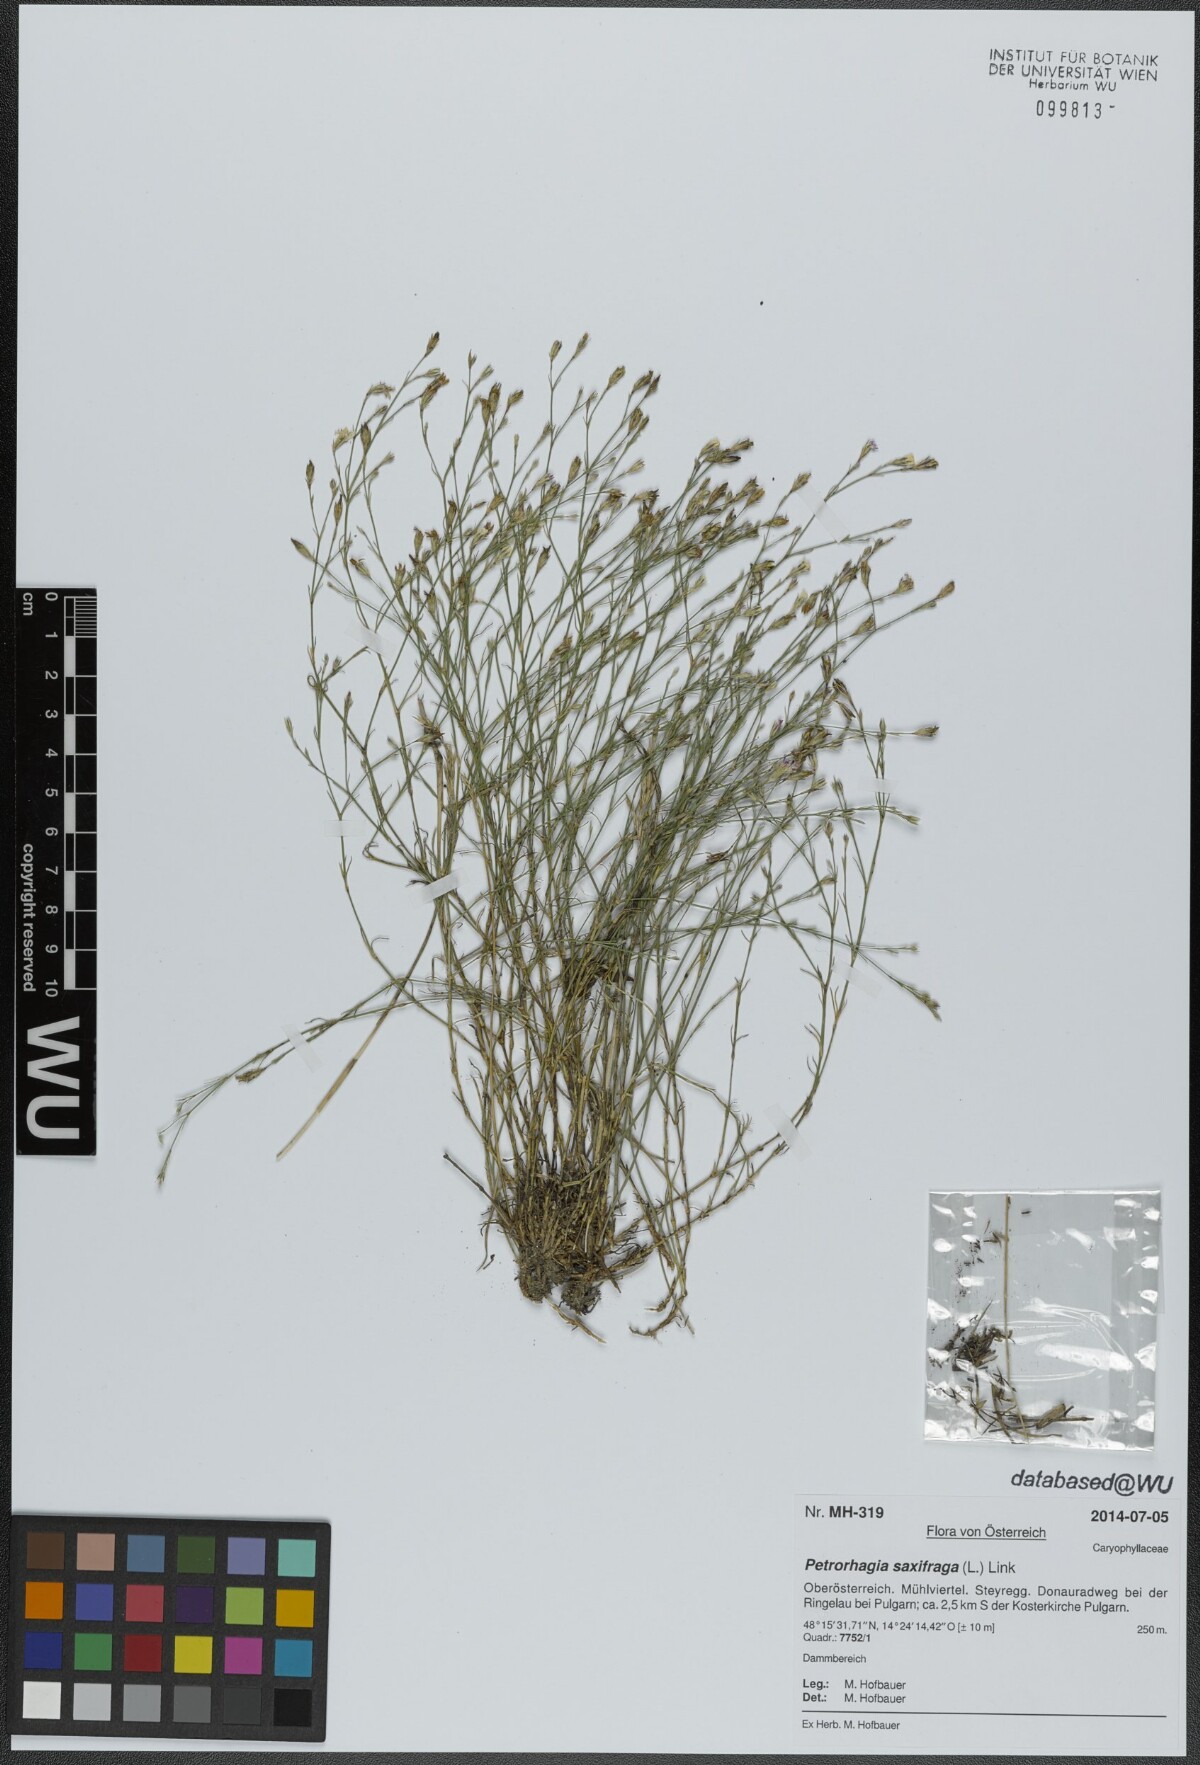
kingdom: Plantae
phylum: Tracheophyta
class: Magnoliopsida
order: Caryophyllales
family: Caryophyllaceae
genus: Petrorhagia
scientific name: Petrorhagia saxifraga
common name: Tunicflower
